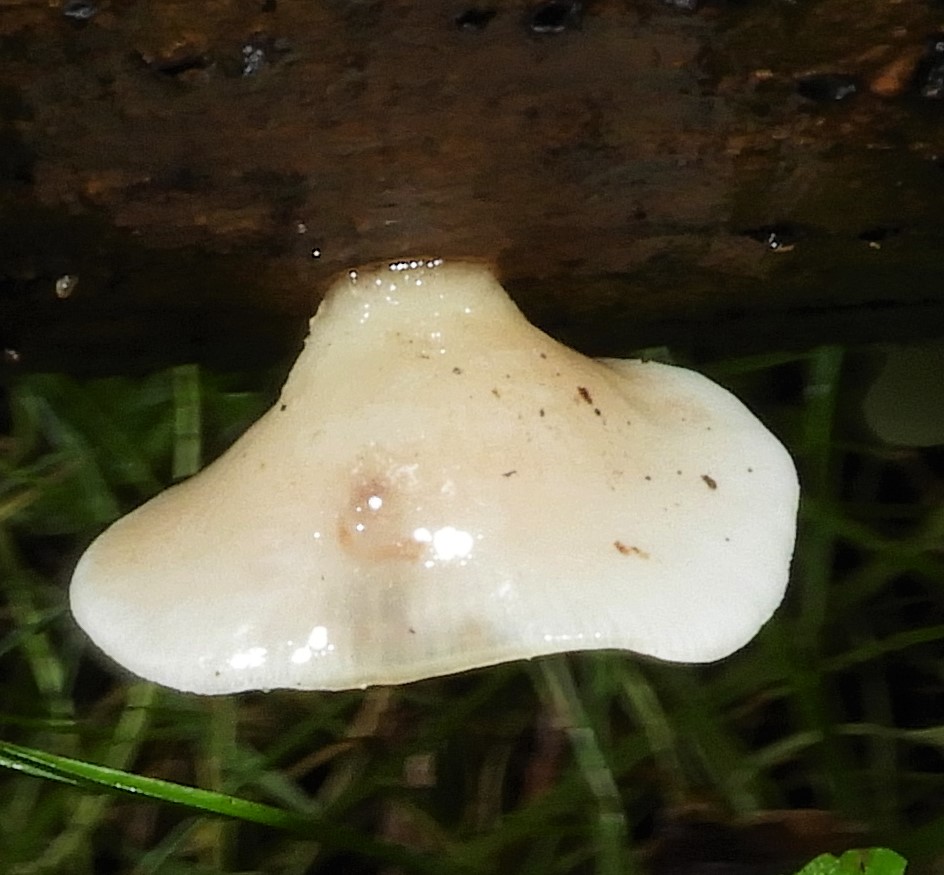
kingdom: Fungi
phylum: Basidiomycota
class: Agaricomycetes
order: Agaricales
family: Crepidotaceae
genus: Crepidotus
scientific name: Crepidotus mollis
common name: blød muslingesvamp
